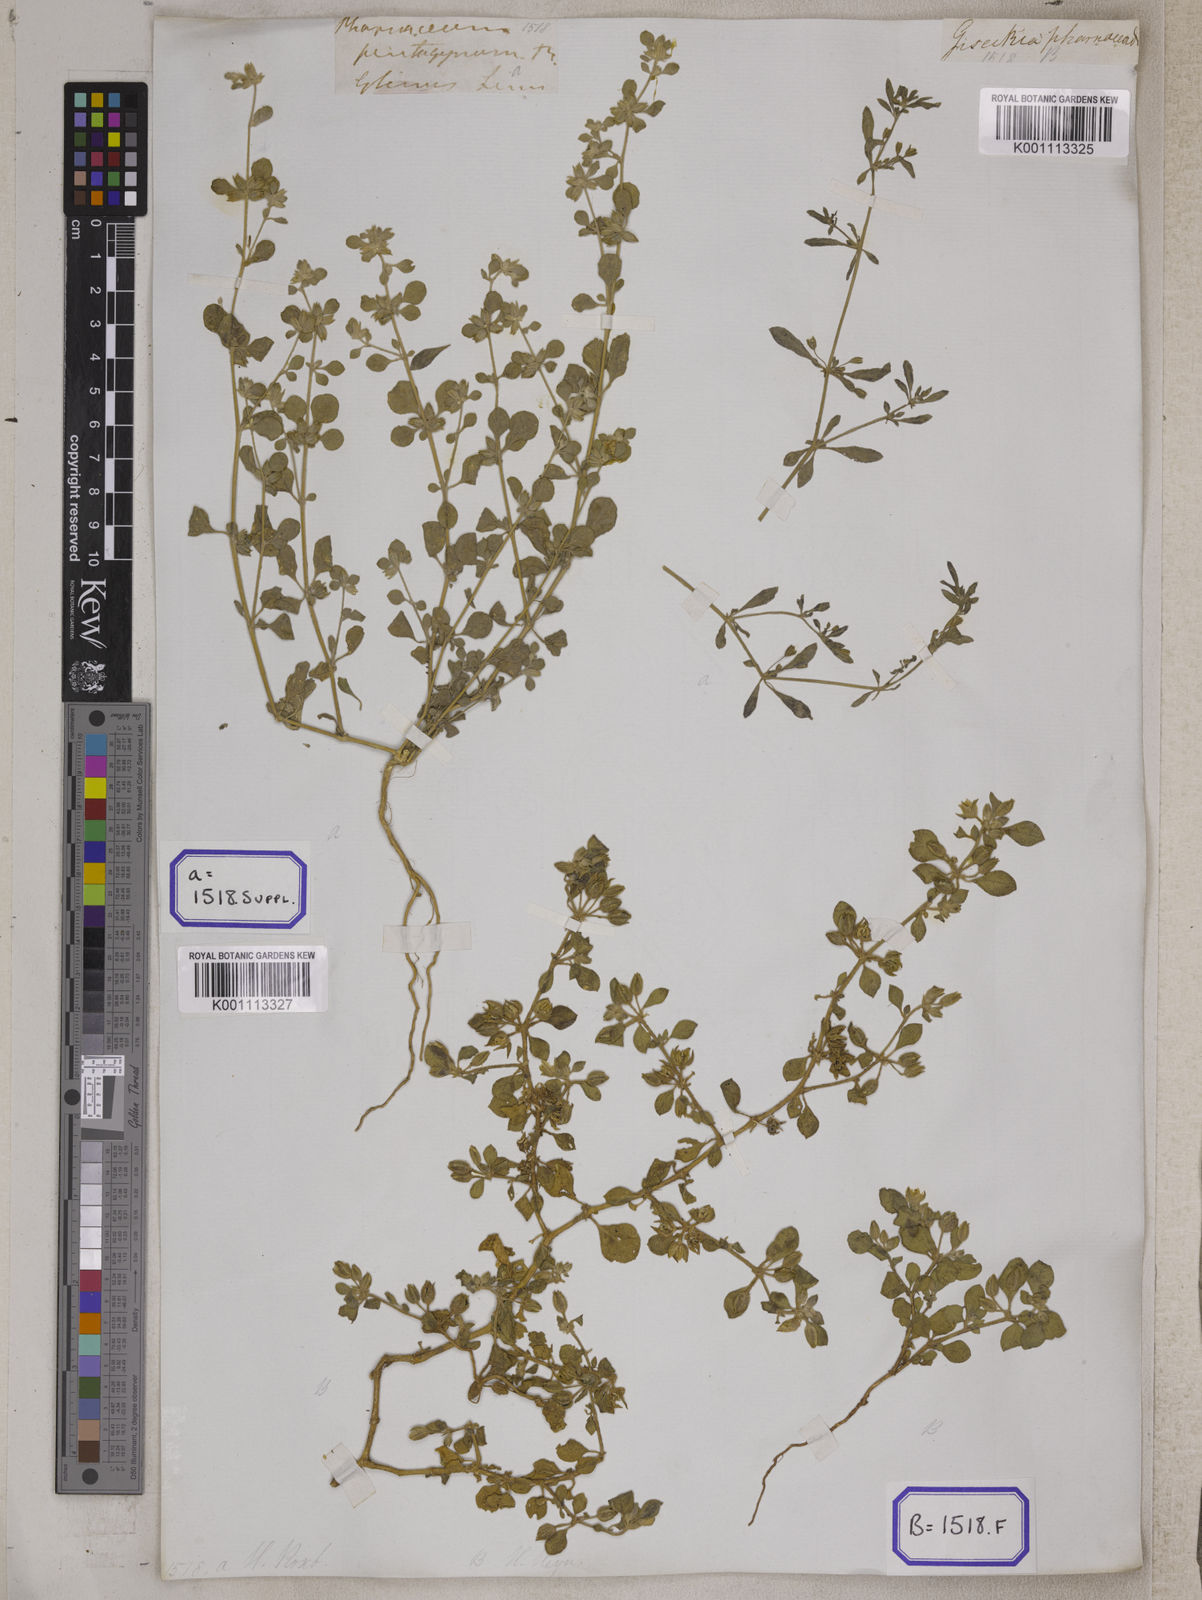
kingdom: Plantae
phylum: Tracheophyta
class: Magnoliopsida
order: Caryophyllales
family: Molluginaceae
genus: Glinus
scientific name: Glinus
